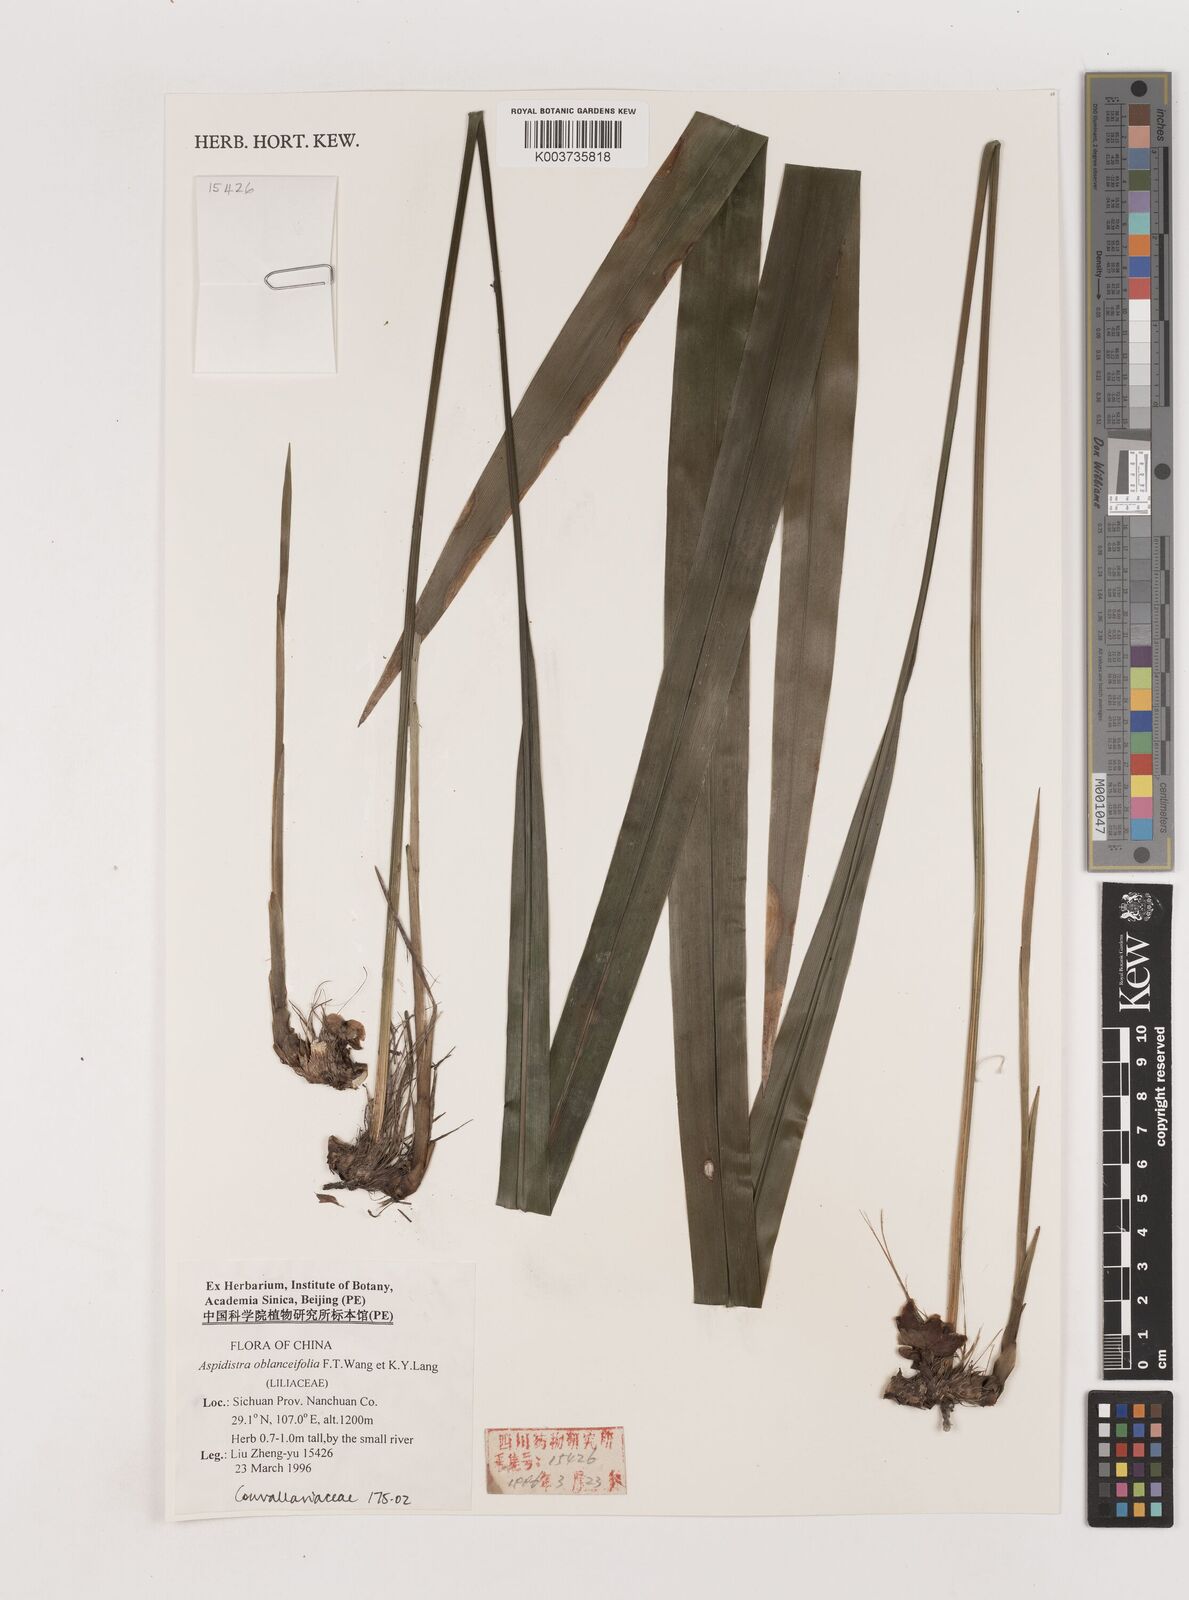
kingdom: Plantae
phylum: Tracheophyta
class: Liliopsida
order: Asparagales
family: Asparagaceae
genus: Aspidistra
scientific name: Aspidistra oblanceifolia
